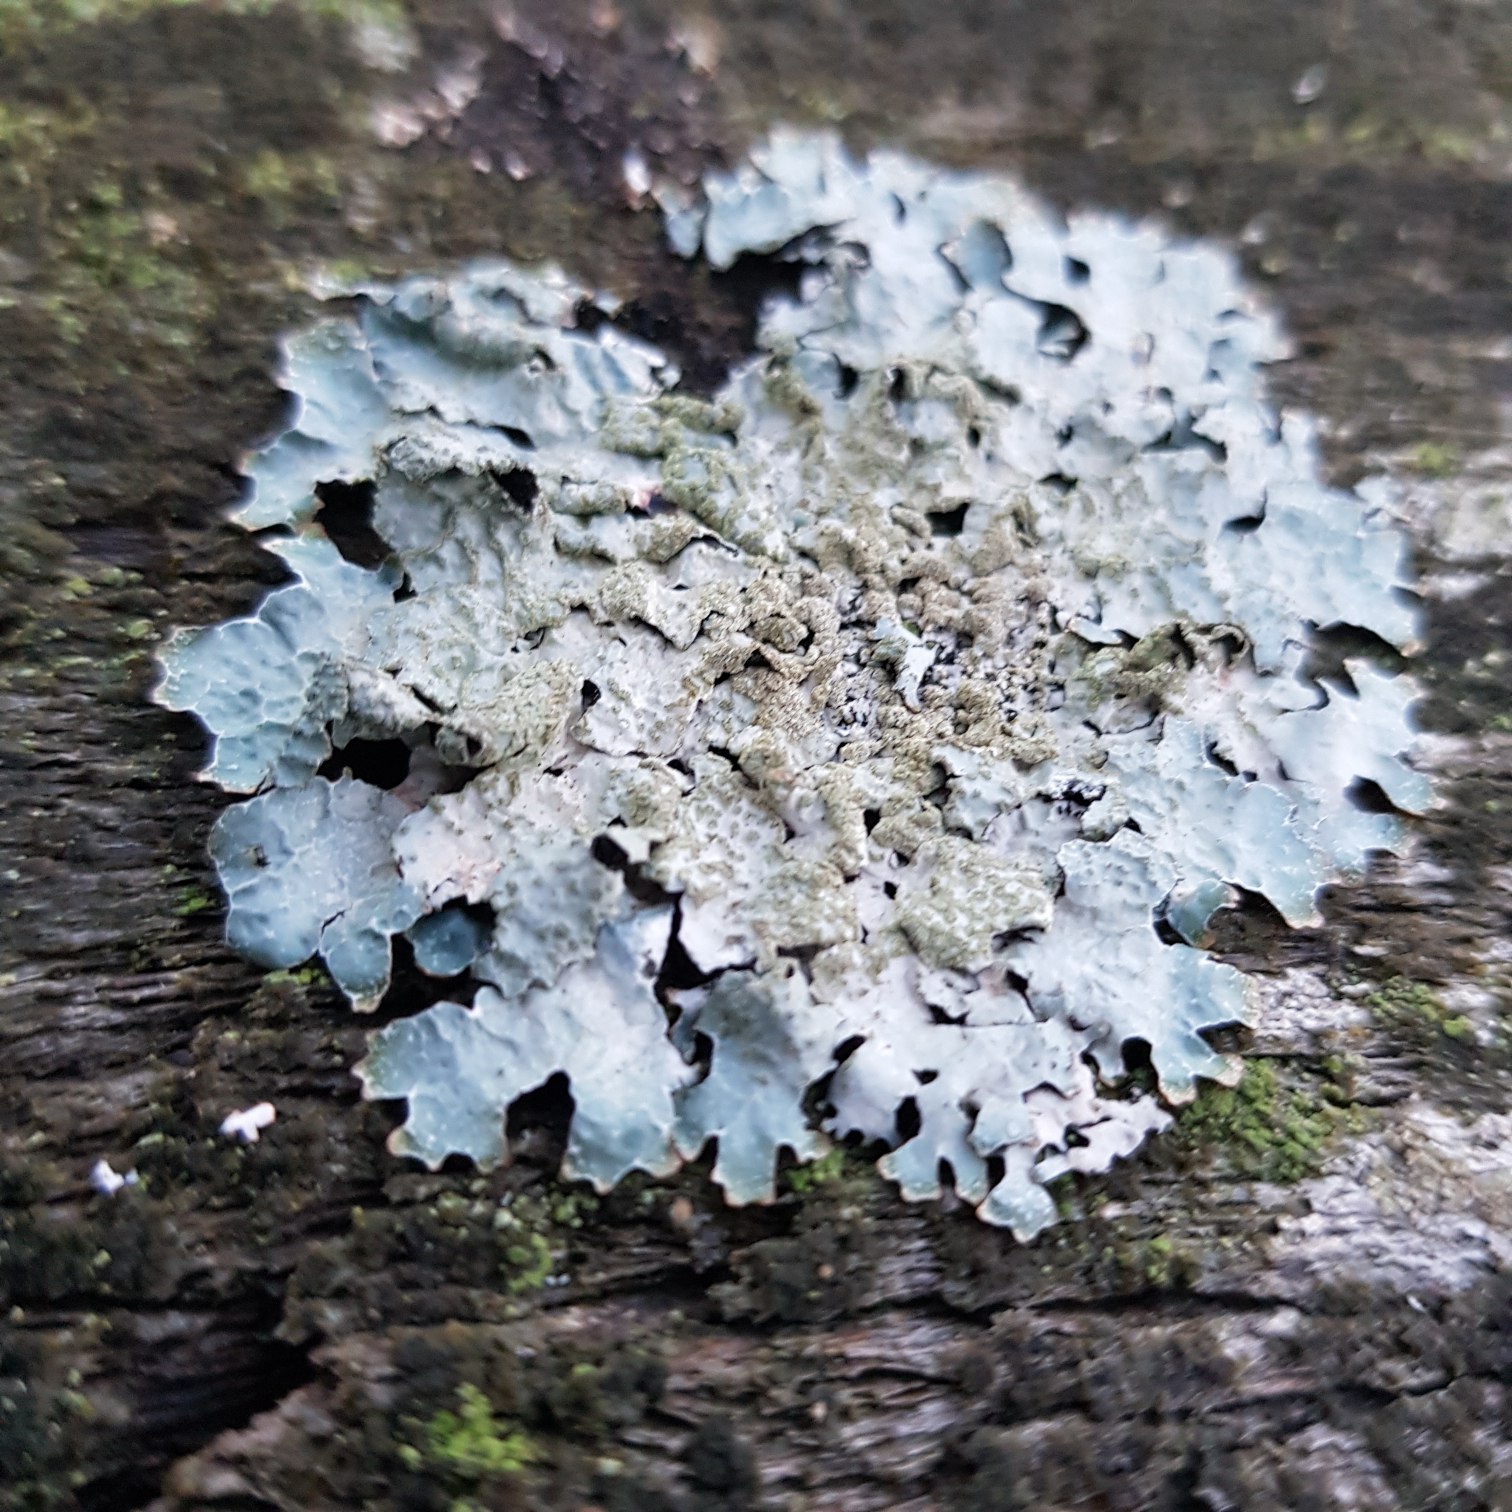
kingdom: Fungi
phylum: Ascomycota
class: Lecanoromycetes
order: Lecanorales
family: Parmeliaceae
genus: Parmelia
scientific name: Parmelia sulcata
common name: Rynket skållav
